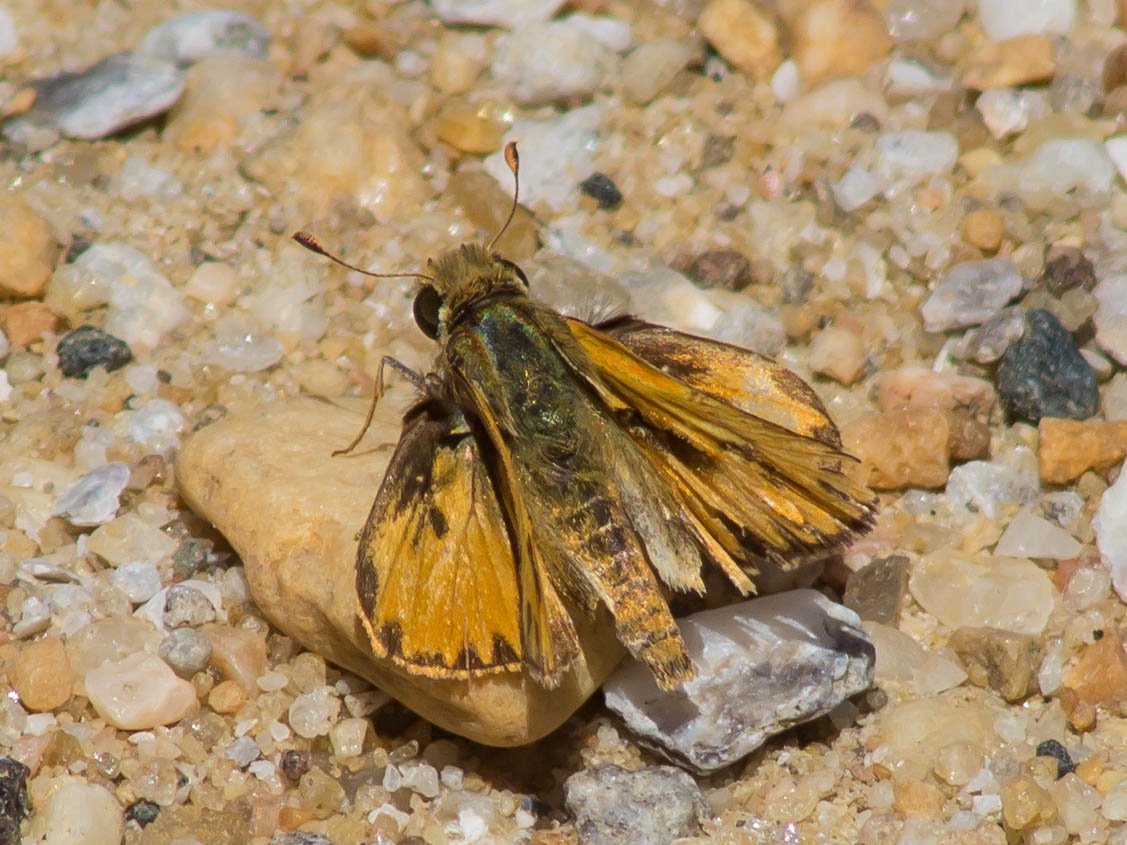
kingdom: Animalia
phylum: Arthropoda
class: Insecta
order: Lepidoptera
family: Hesperiidae
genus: Hylephila
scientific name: Hylephila phyleus
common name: Fiery Skipper
